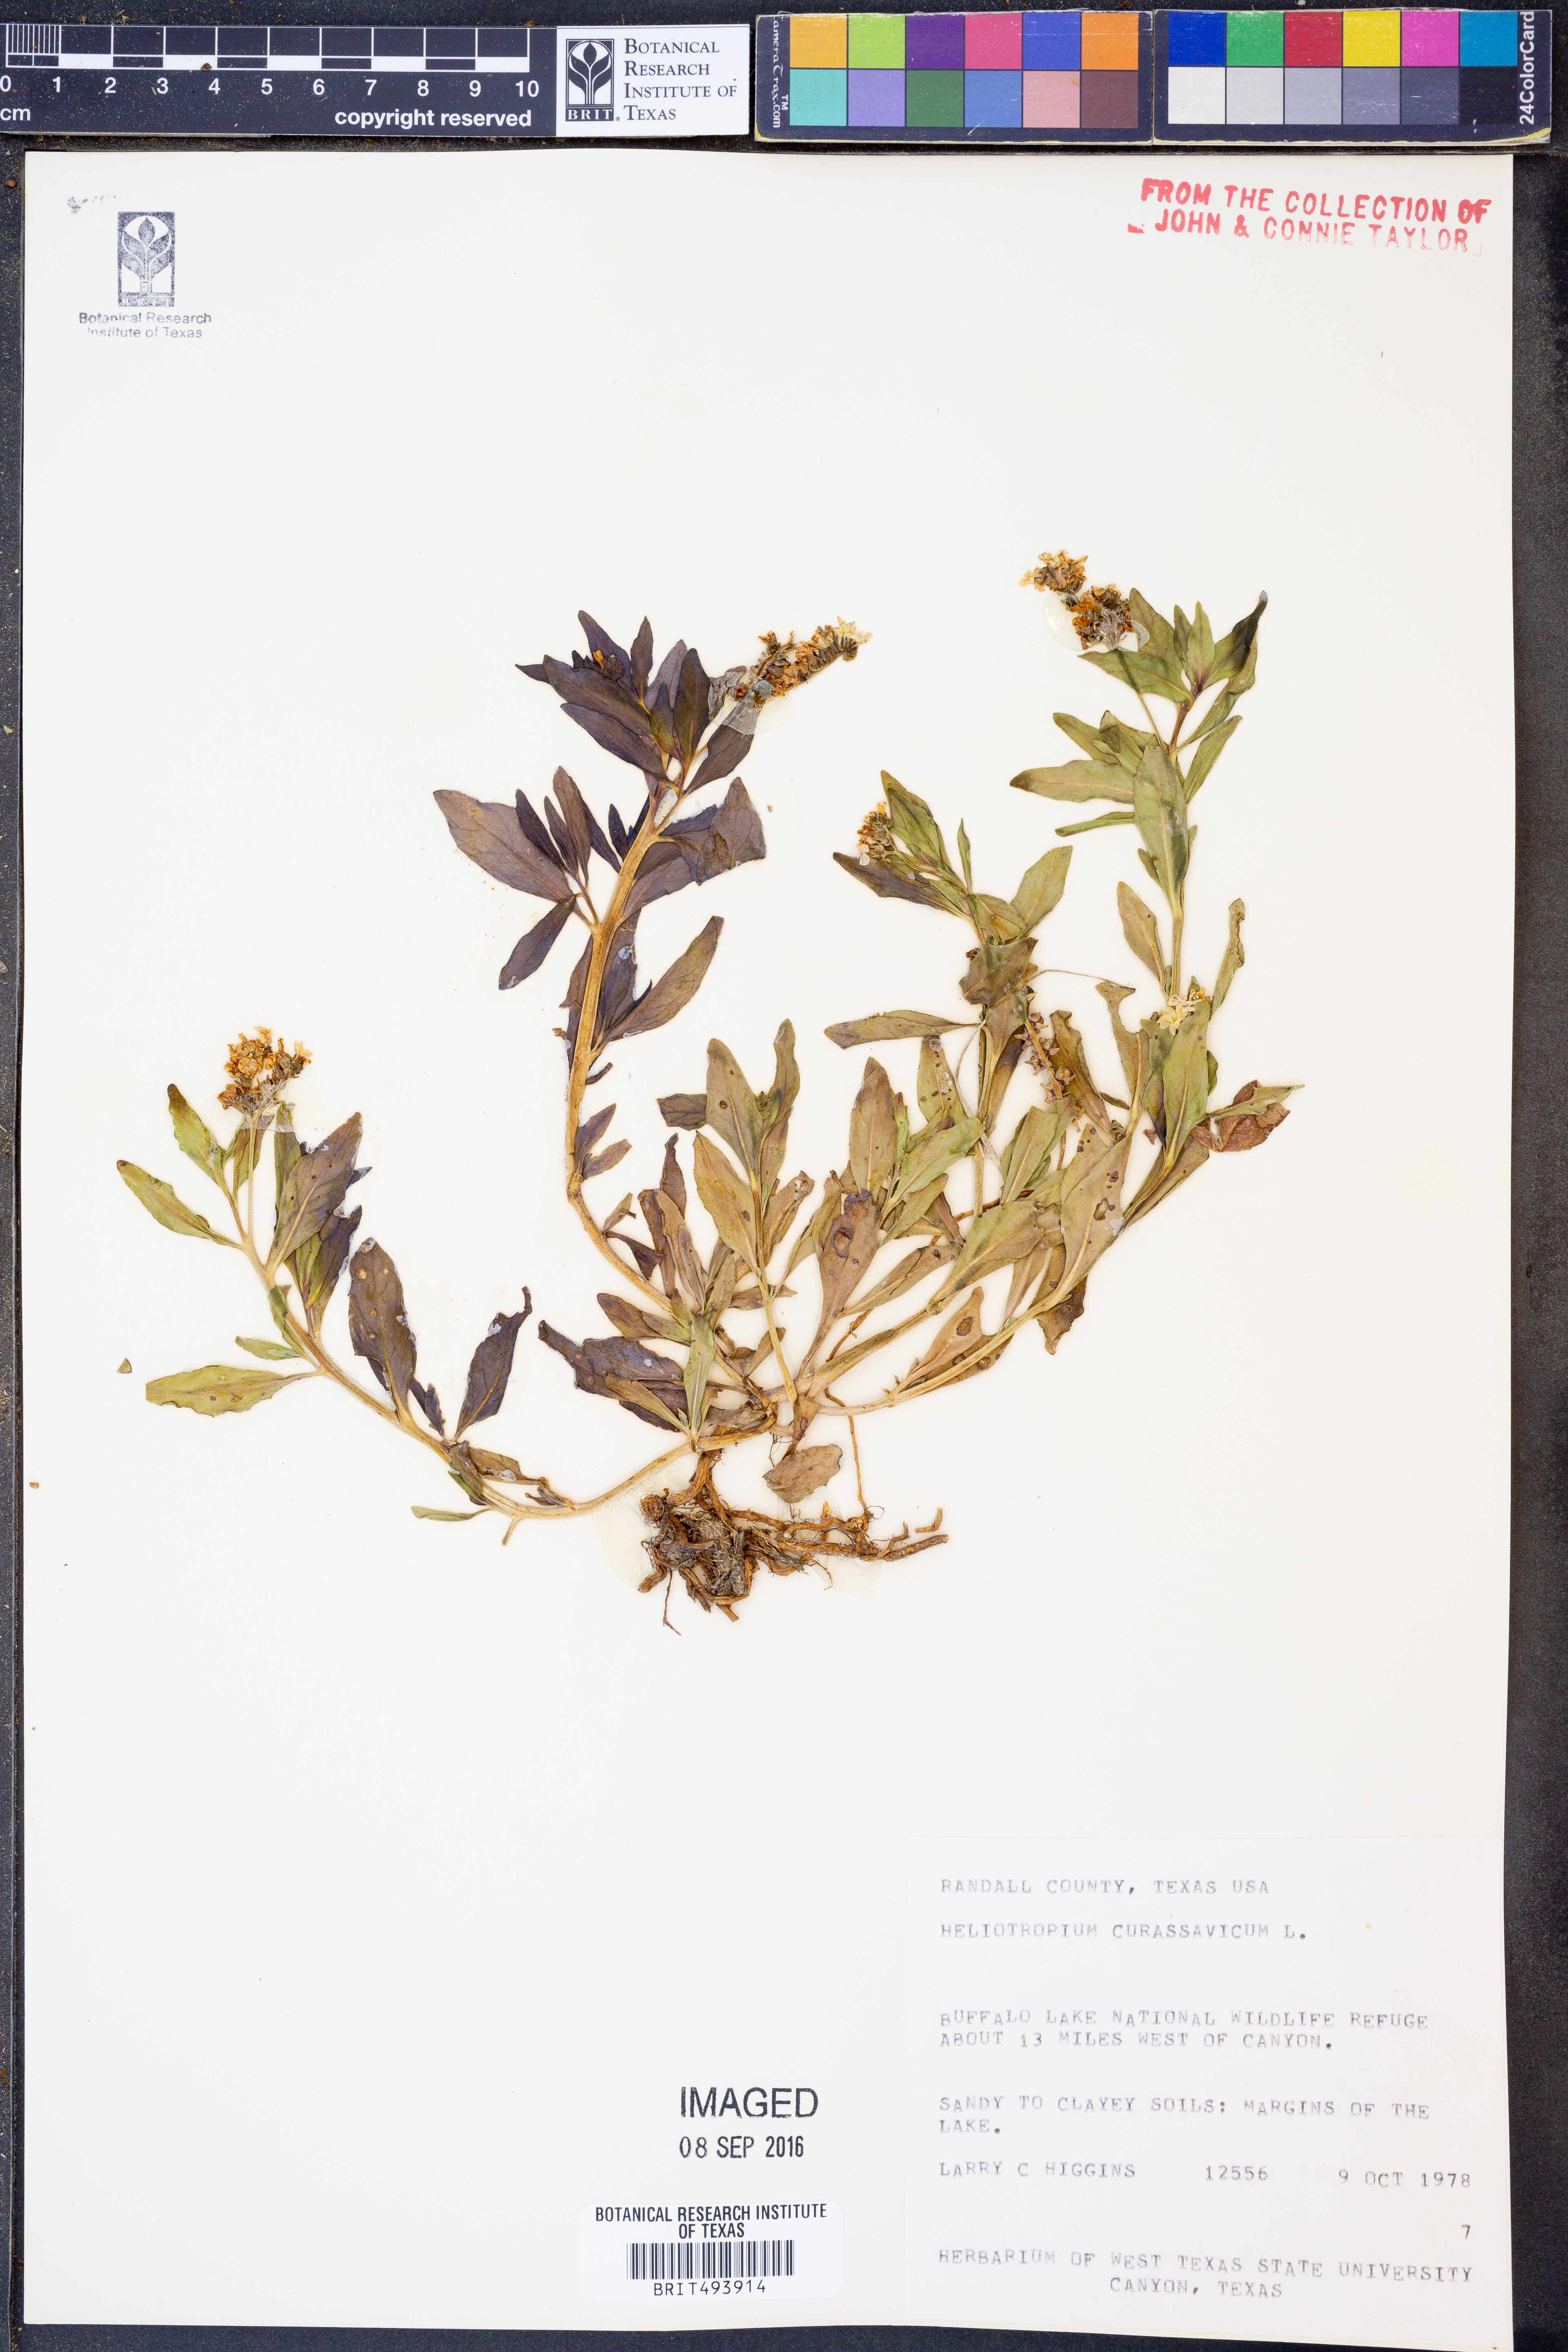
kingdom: Plantae
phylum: Tracheophyta
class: Magnoliopsida
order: Boraginales
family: Heliotropiaceae
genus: Heliotropium
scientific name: Heliotropium curassavicum
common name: Seaside heliotrope
